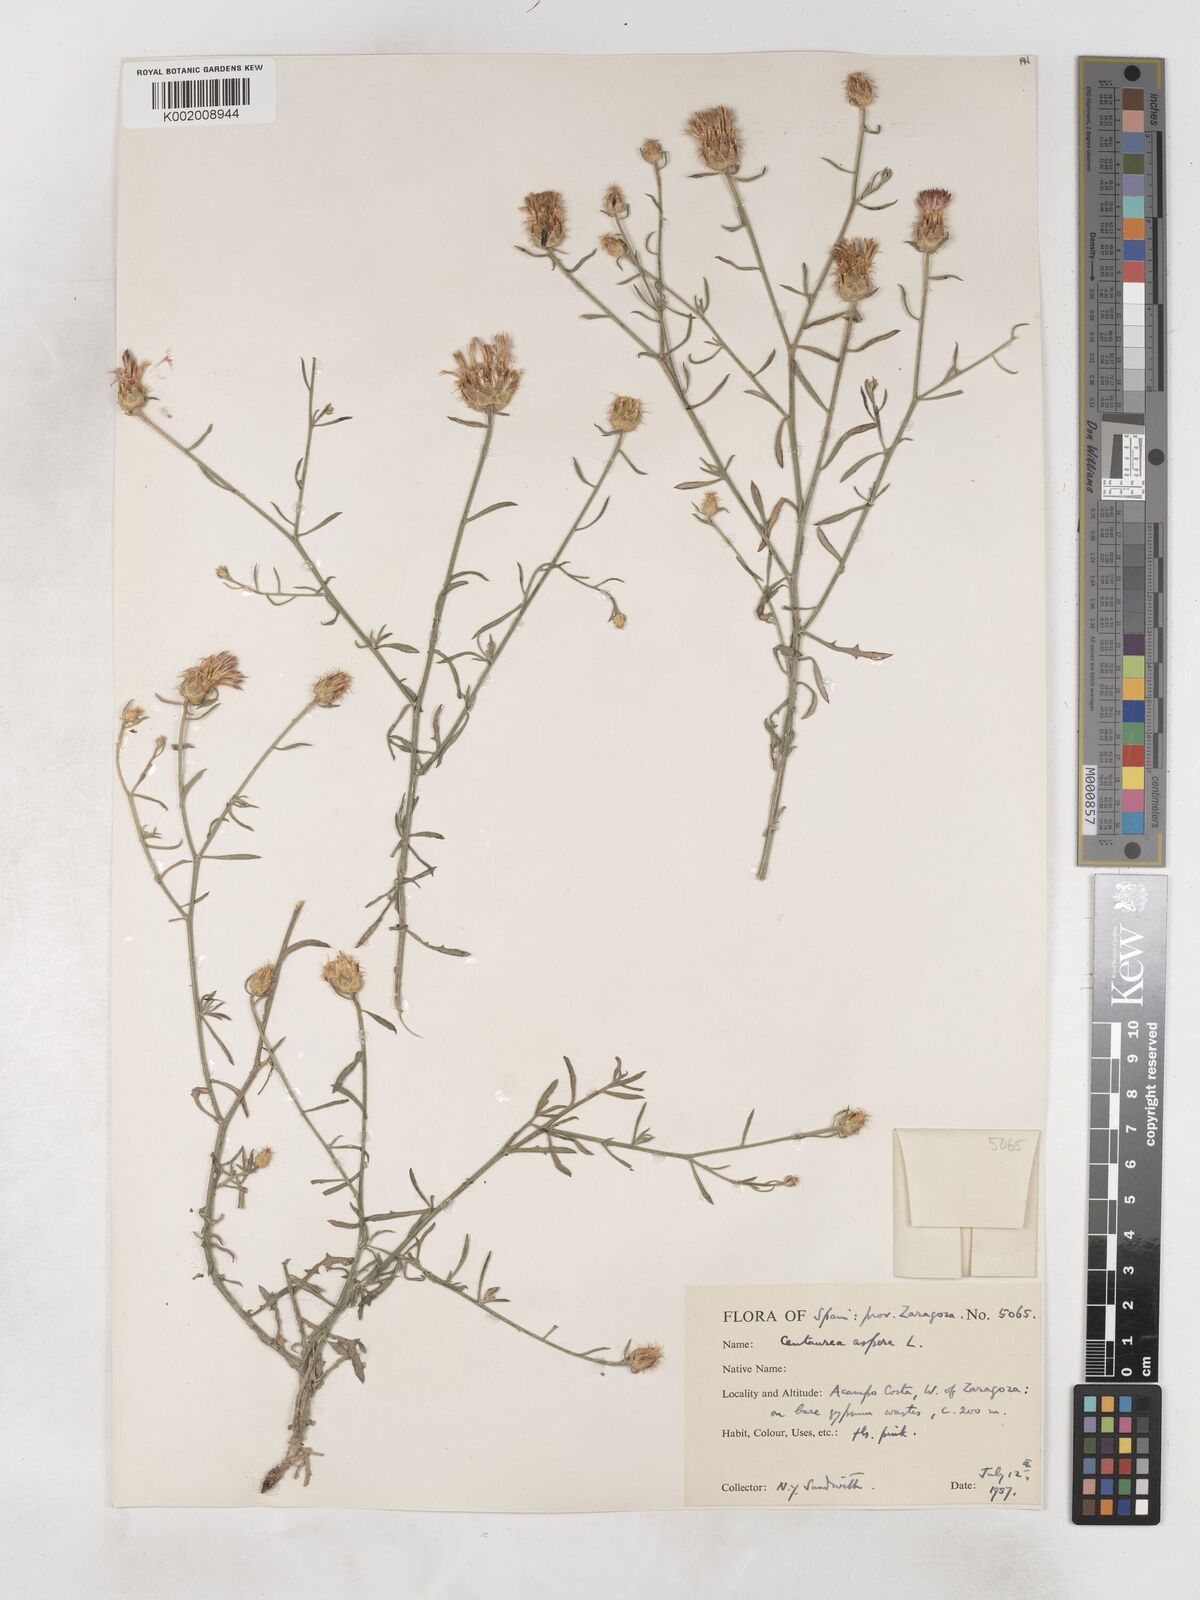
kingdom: Plantae
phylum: Tracheophyta
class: Magnoliopsida
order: Asterales
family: Asteraceae
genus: Centaurea
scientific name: Centaurea aspera
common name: Rough star-thistle
